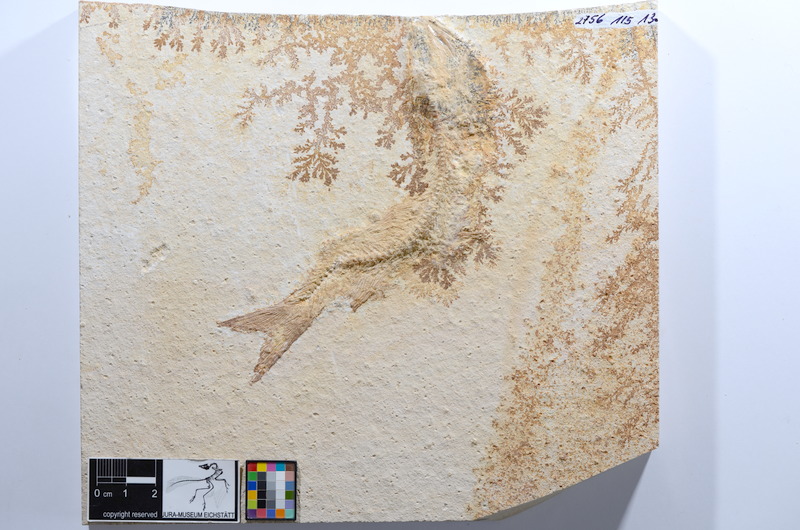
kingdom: Animalia
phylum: Chordata
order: Elopiformes
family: Anaethalionidae
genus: Anaethalion
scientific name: Anaethalion
